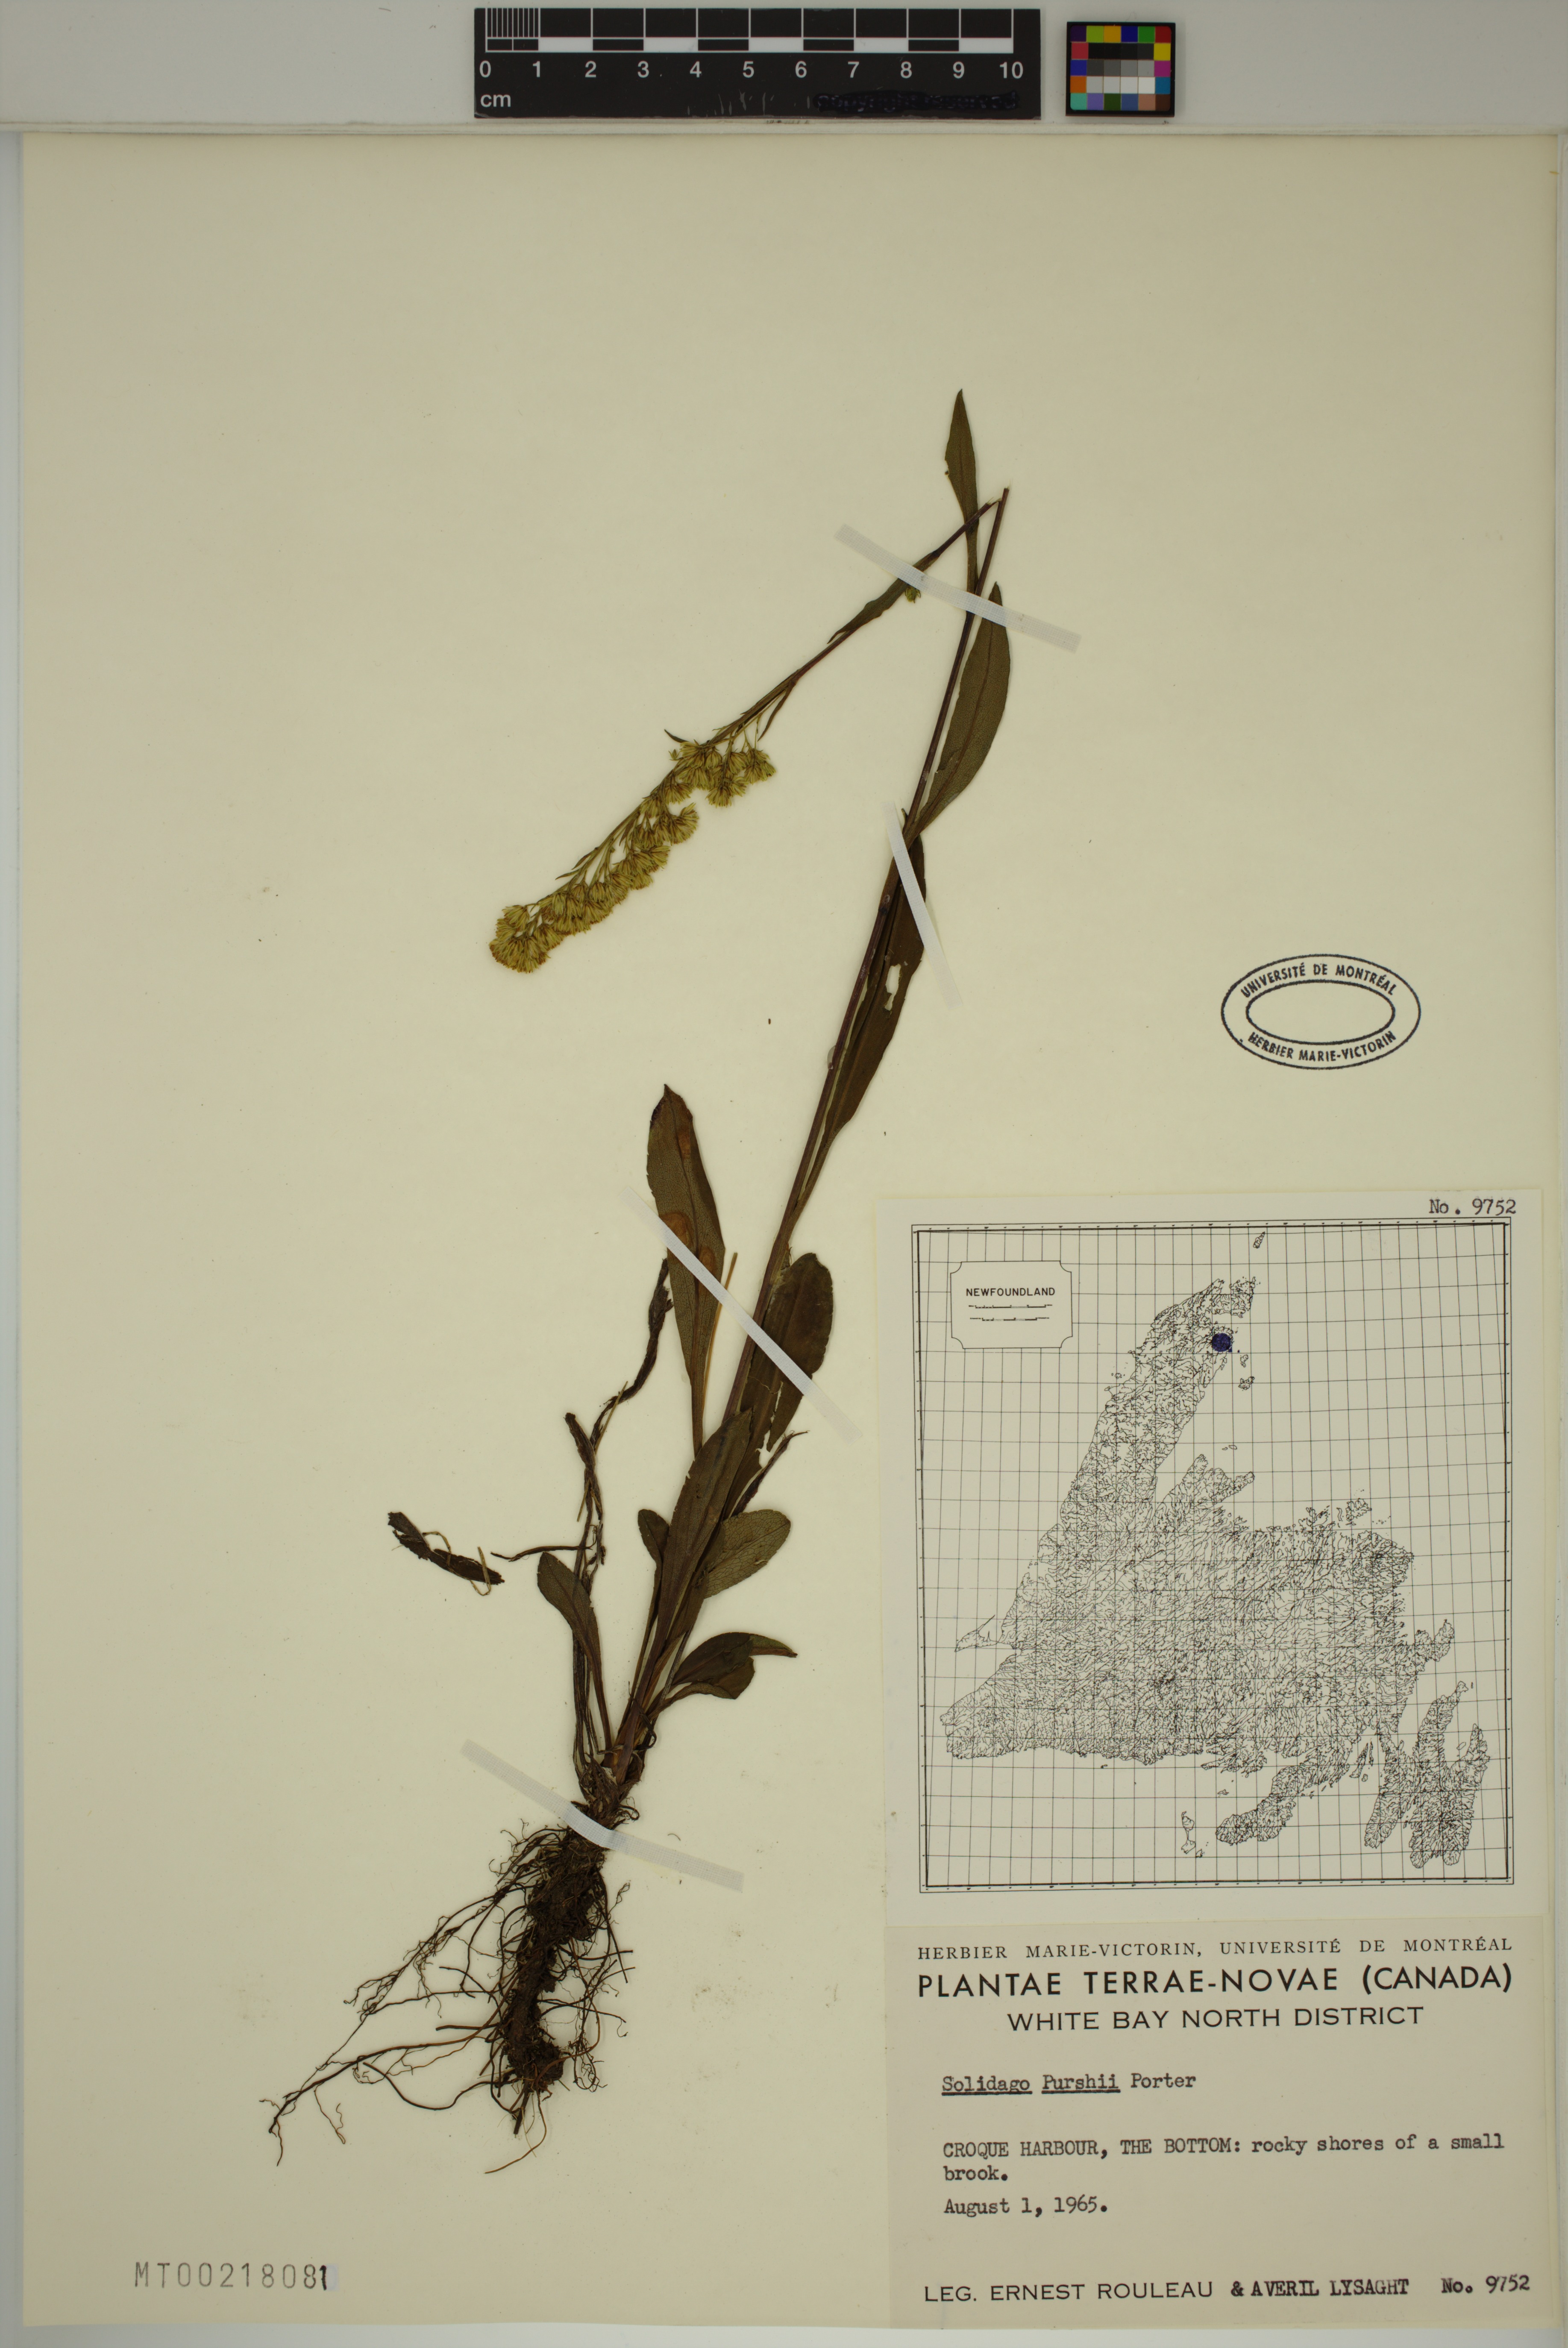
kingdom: Plantae
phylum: Tracheophyta
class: Magnoliopsida
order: Asterales
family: Asteraceae
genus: Solidago
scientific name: Solidago uliginosa
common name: Bog goldenrod
